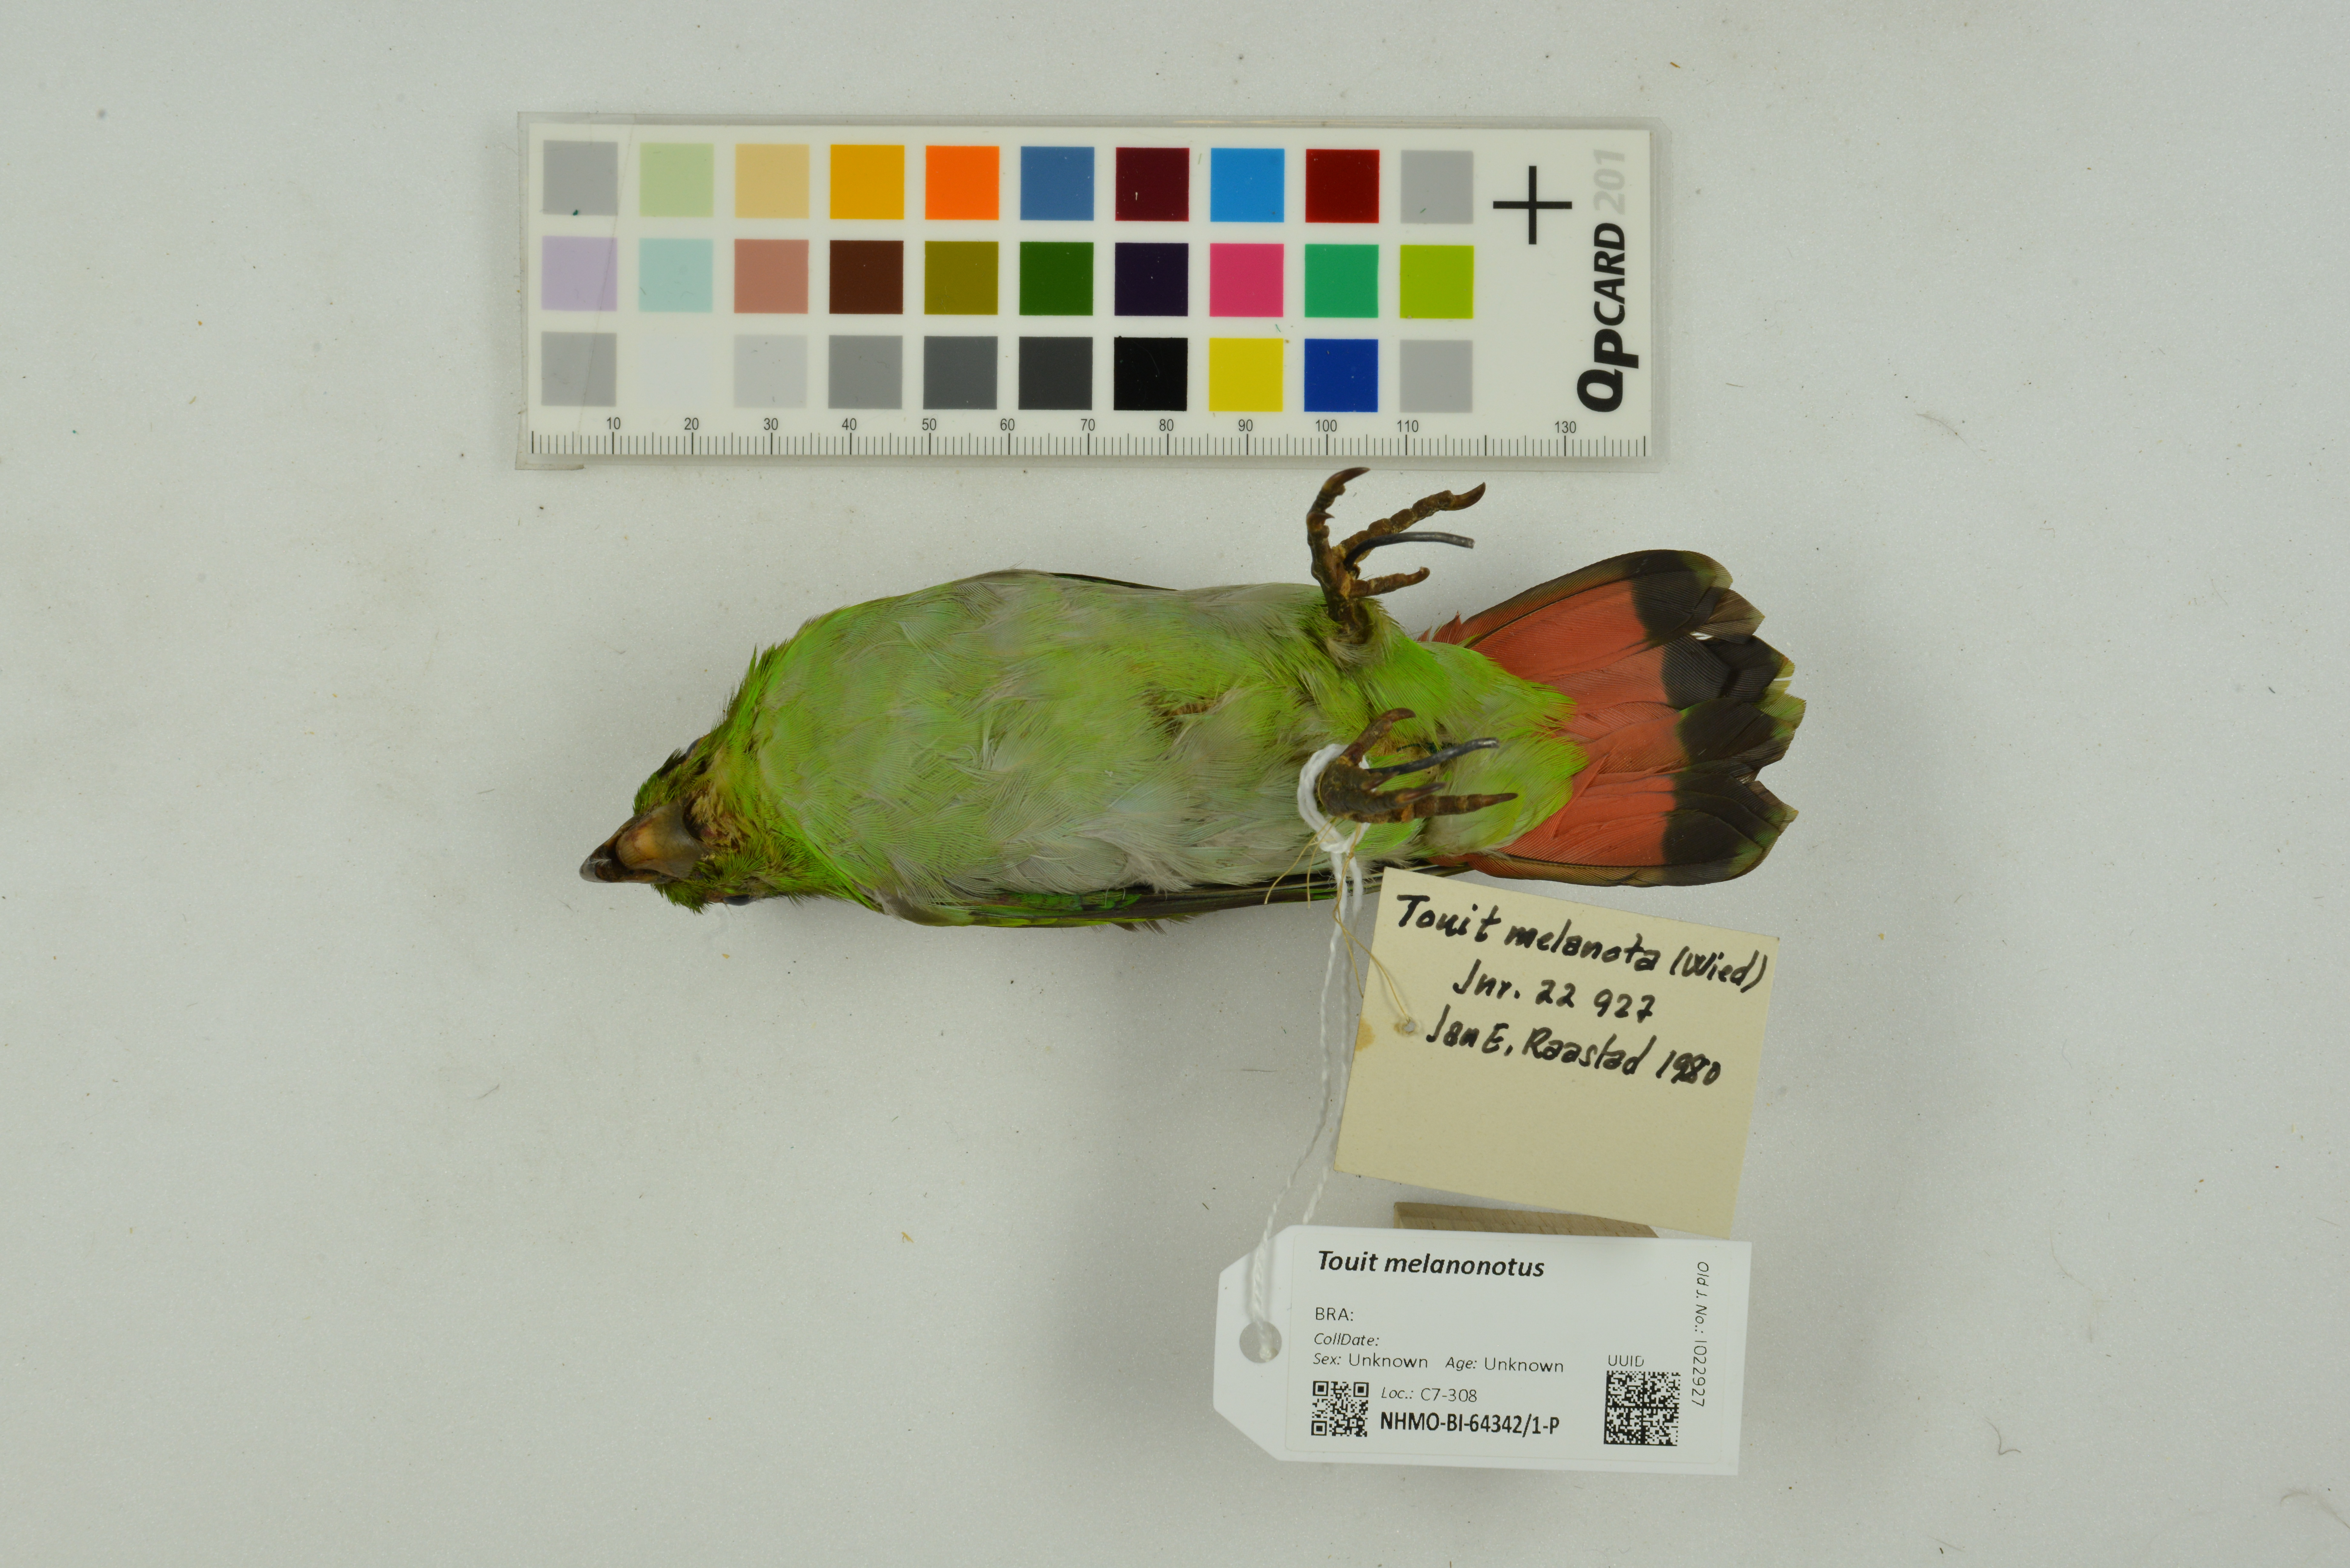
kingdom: Animalia
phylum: Chordata
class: Aves
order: Psittaciformes
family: Psittacidae
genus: Touit
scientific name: Touit melanonotus
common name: Brown-backed parrotlet
